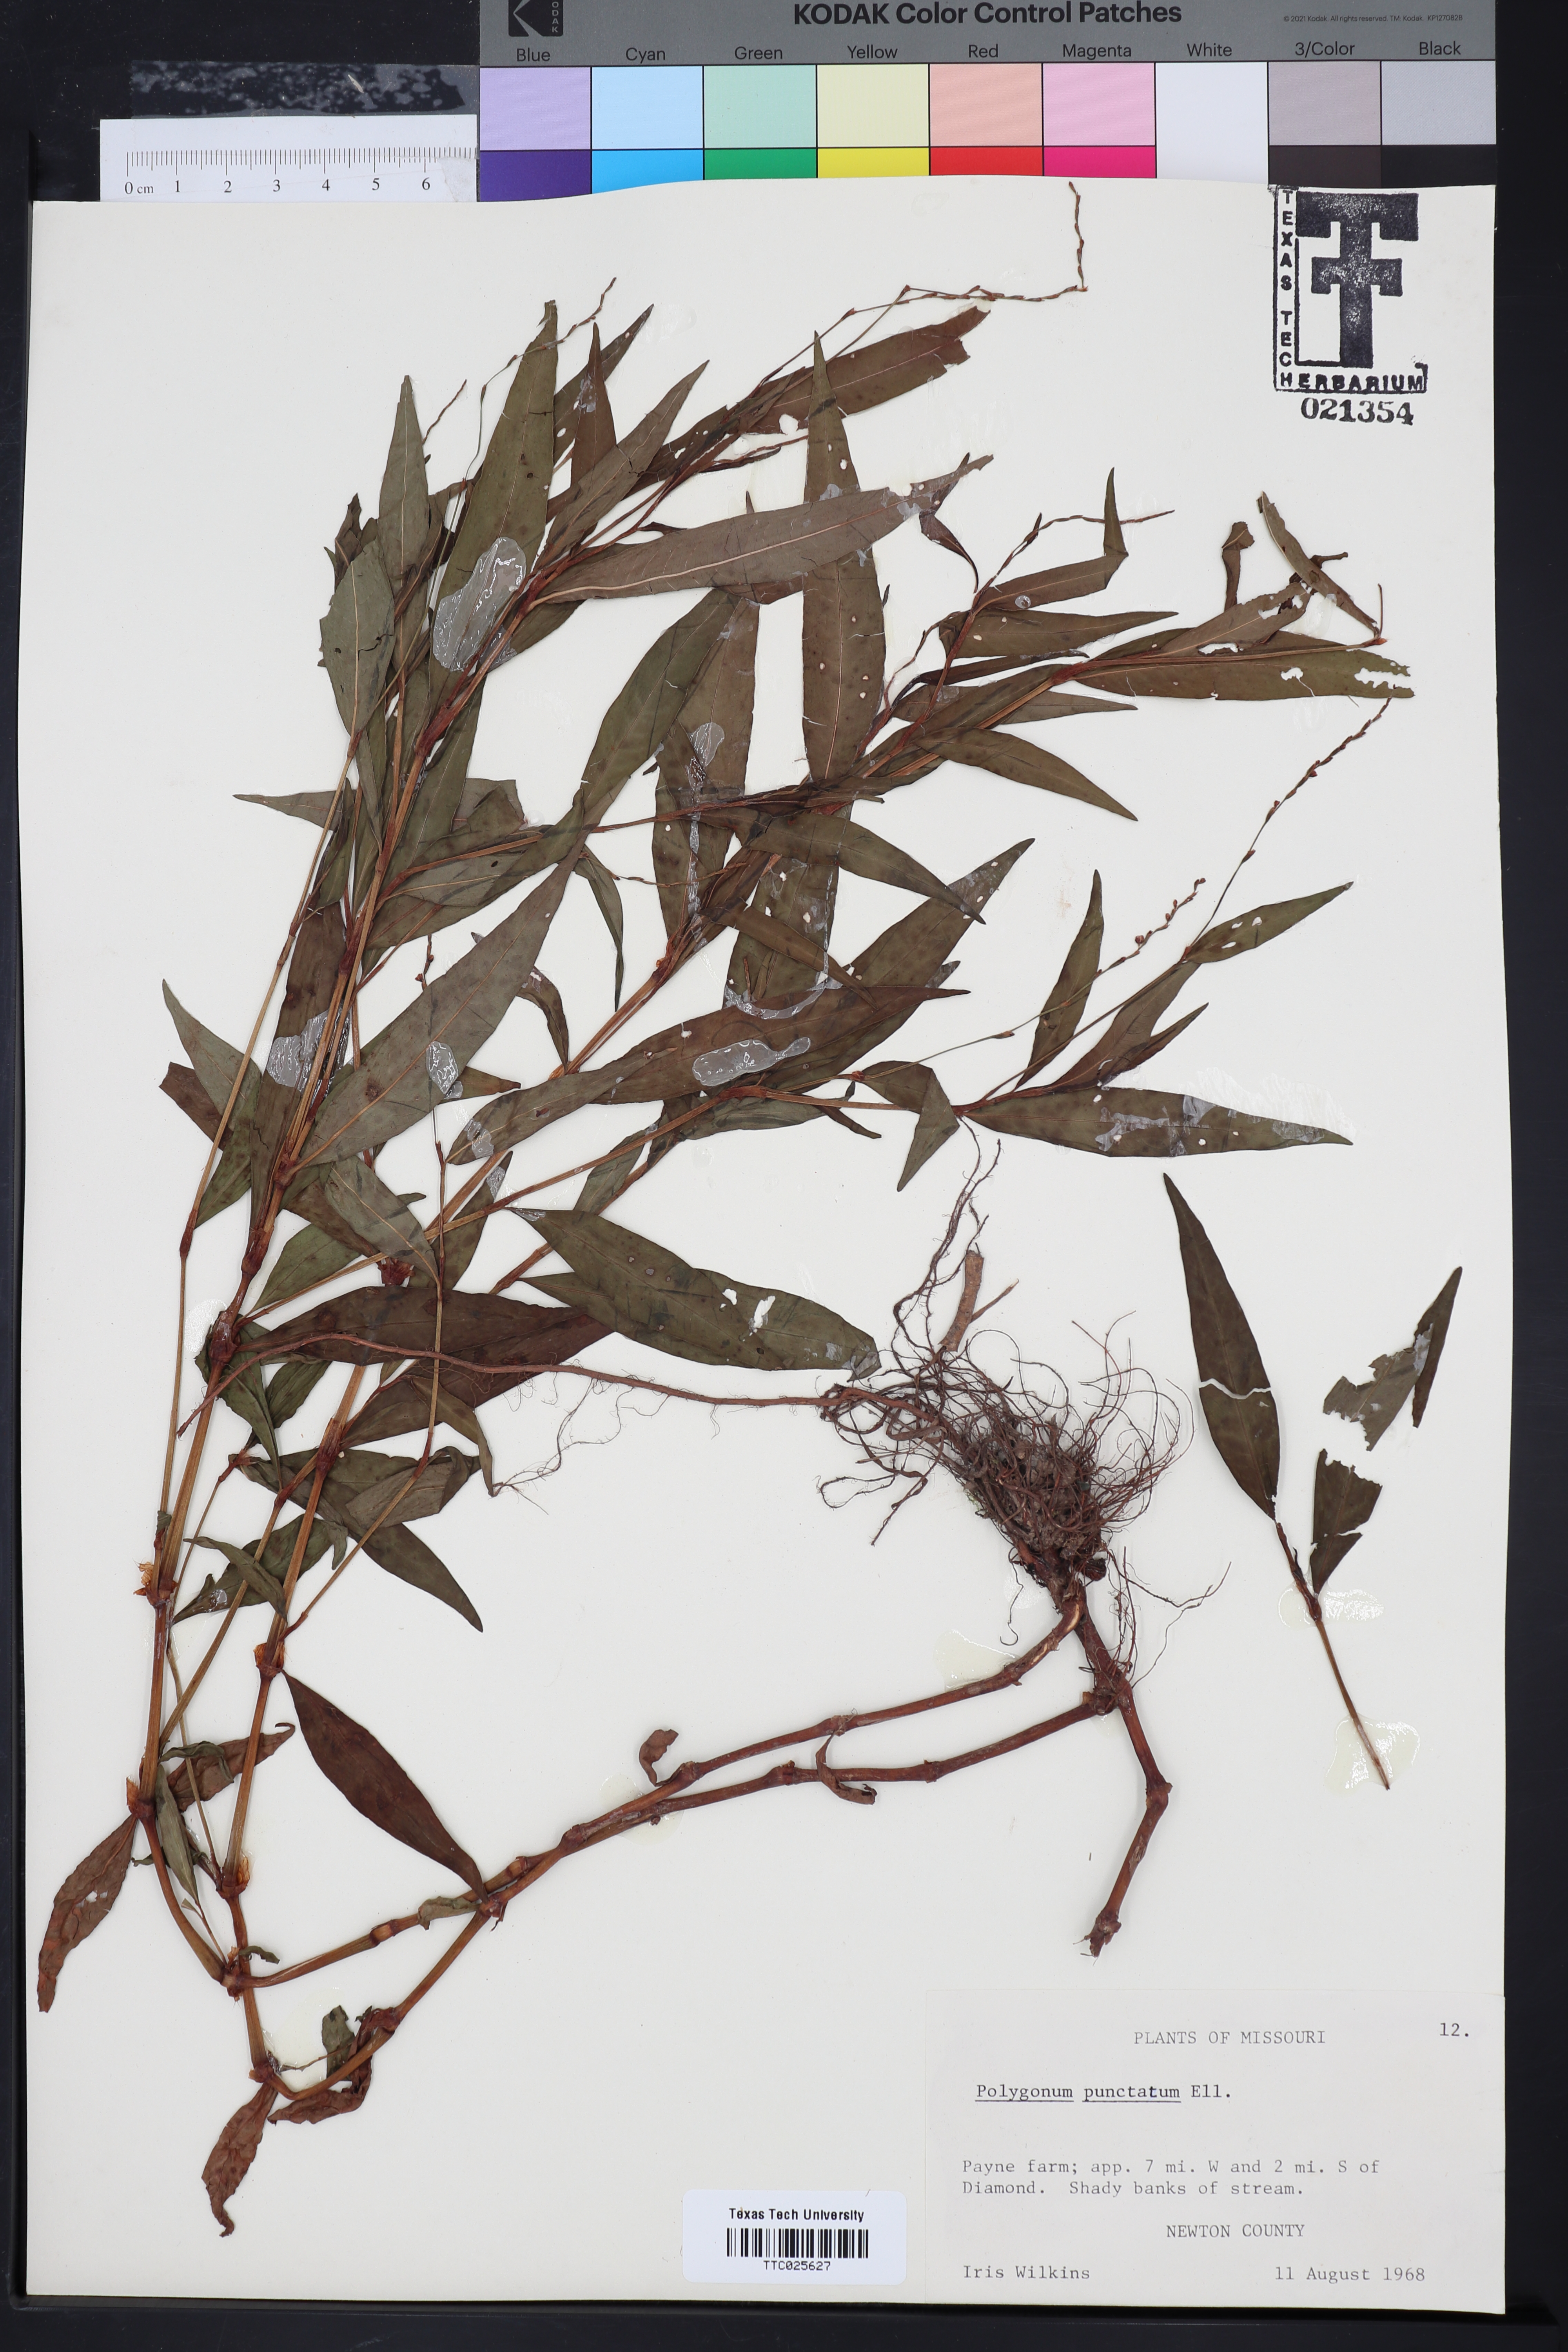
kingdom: Plantae
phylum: Tracheophyta
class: Magnoliopsida
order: Caryophyllales
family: Polygonaceae
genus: Persicaria
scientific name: Persicaria punctata
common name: Dotted smartweed
